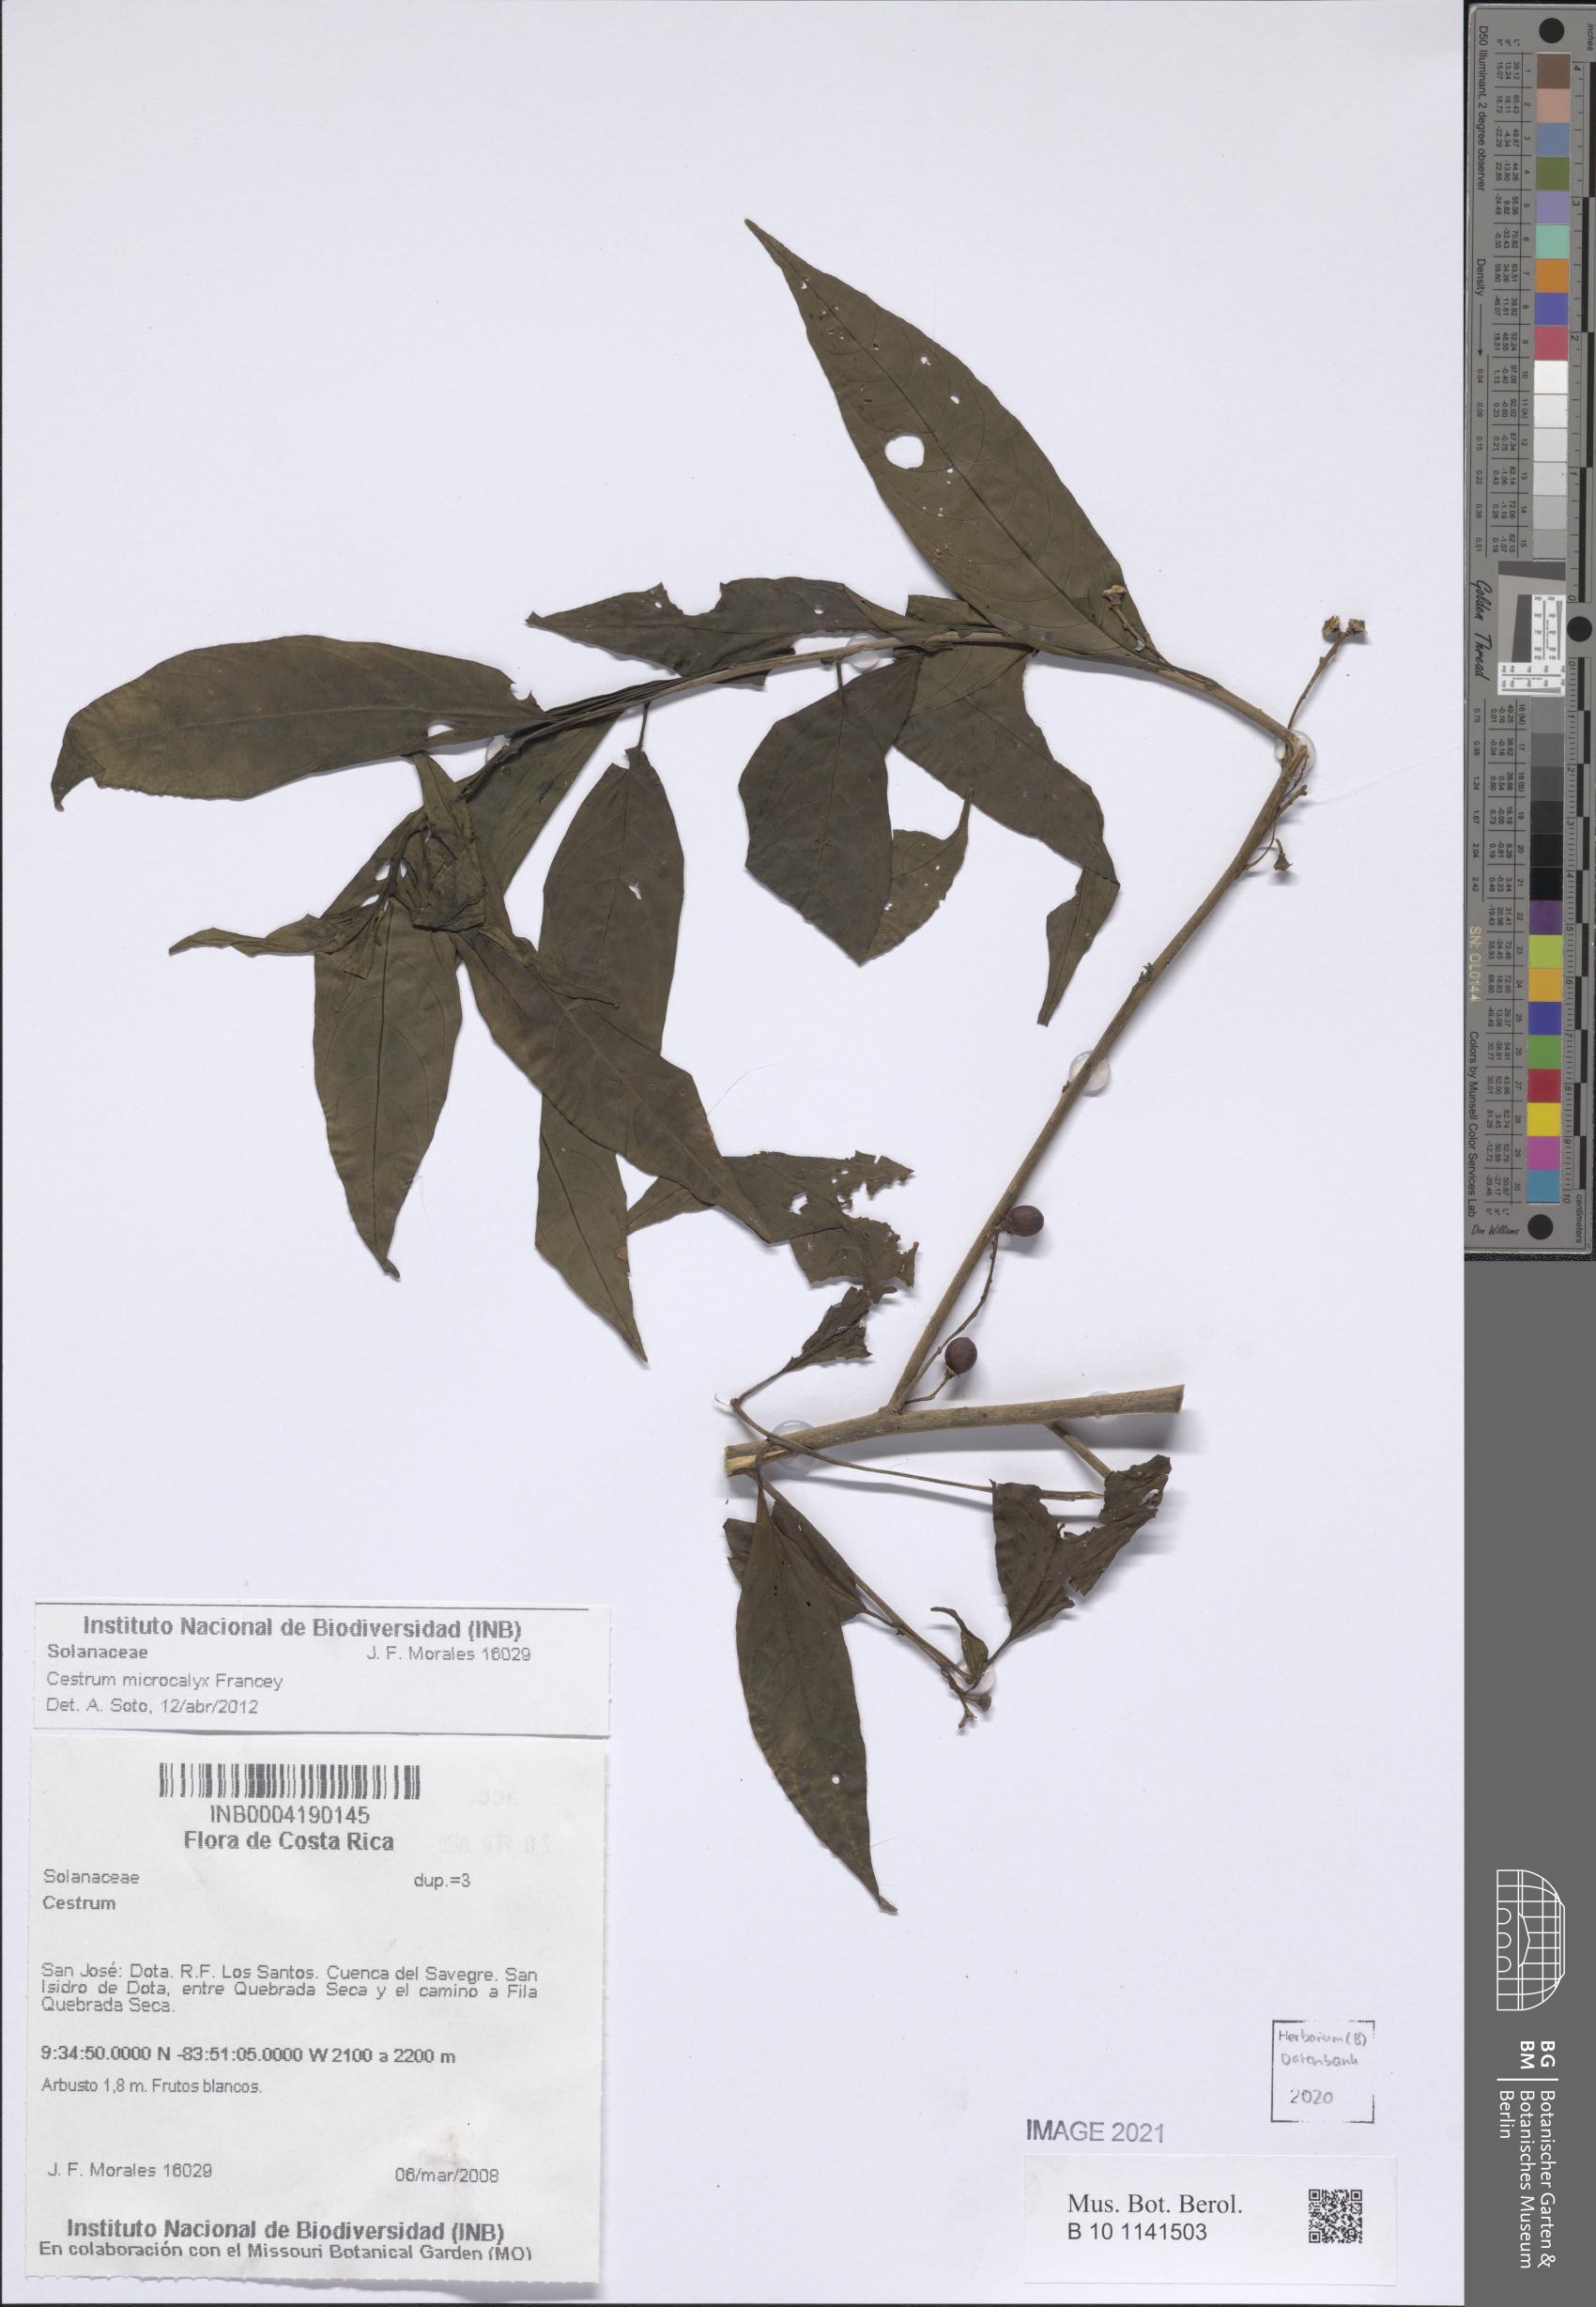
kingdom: Plantae
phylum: Tracheophyta
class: Magnoliopsida
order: Solanales
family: Solanaceae
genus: Cestrum
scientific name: Cestrum microcalyx
